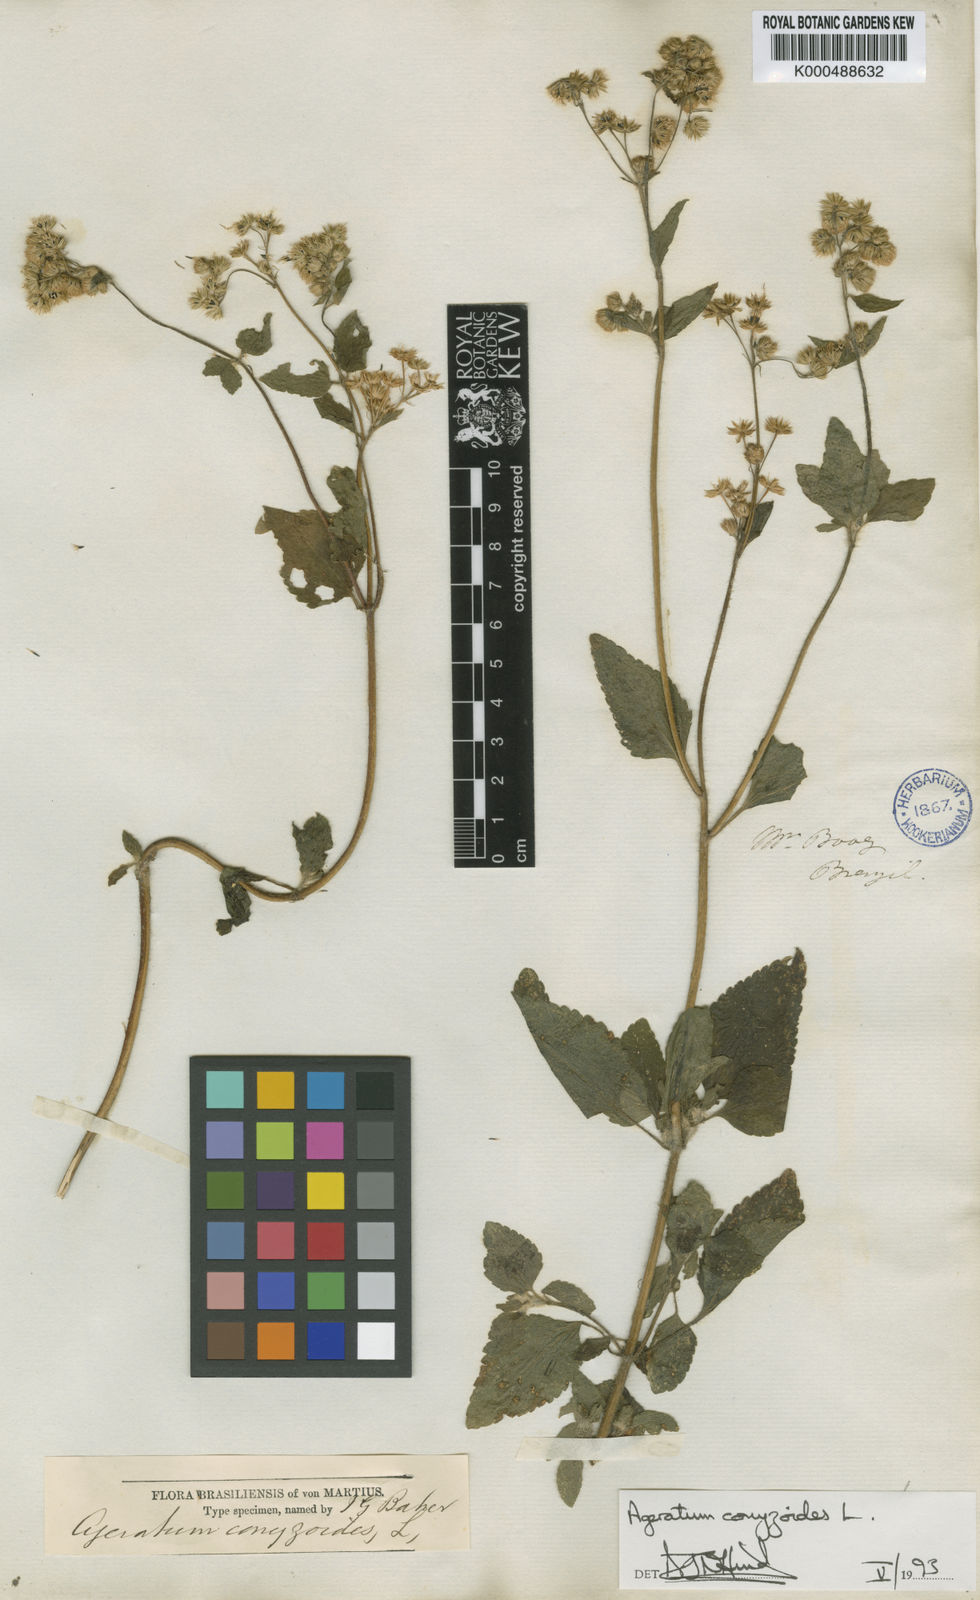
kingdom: Plantae
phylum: Tracheophyta
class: Magnoliopsida
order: Asterales
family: Asteraceae
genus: Ageratum
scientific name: Ageratum conyzoides
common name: Tropical whiteweed
